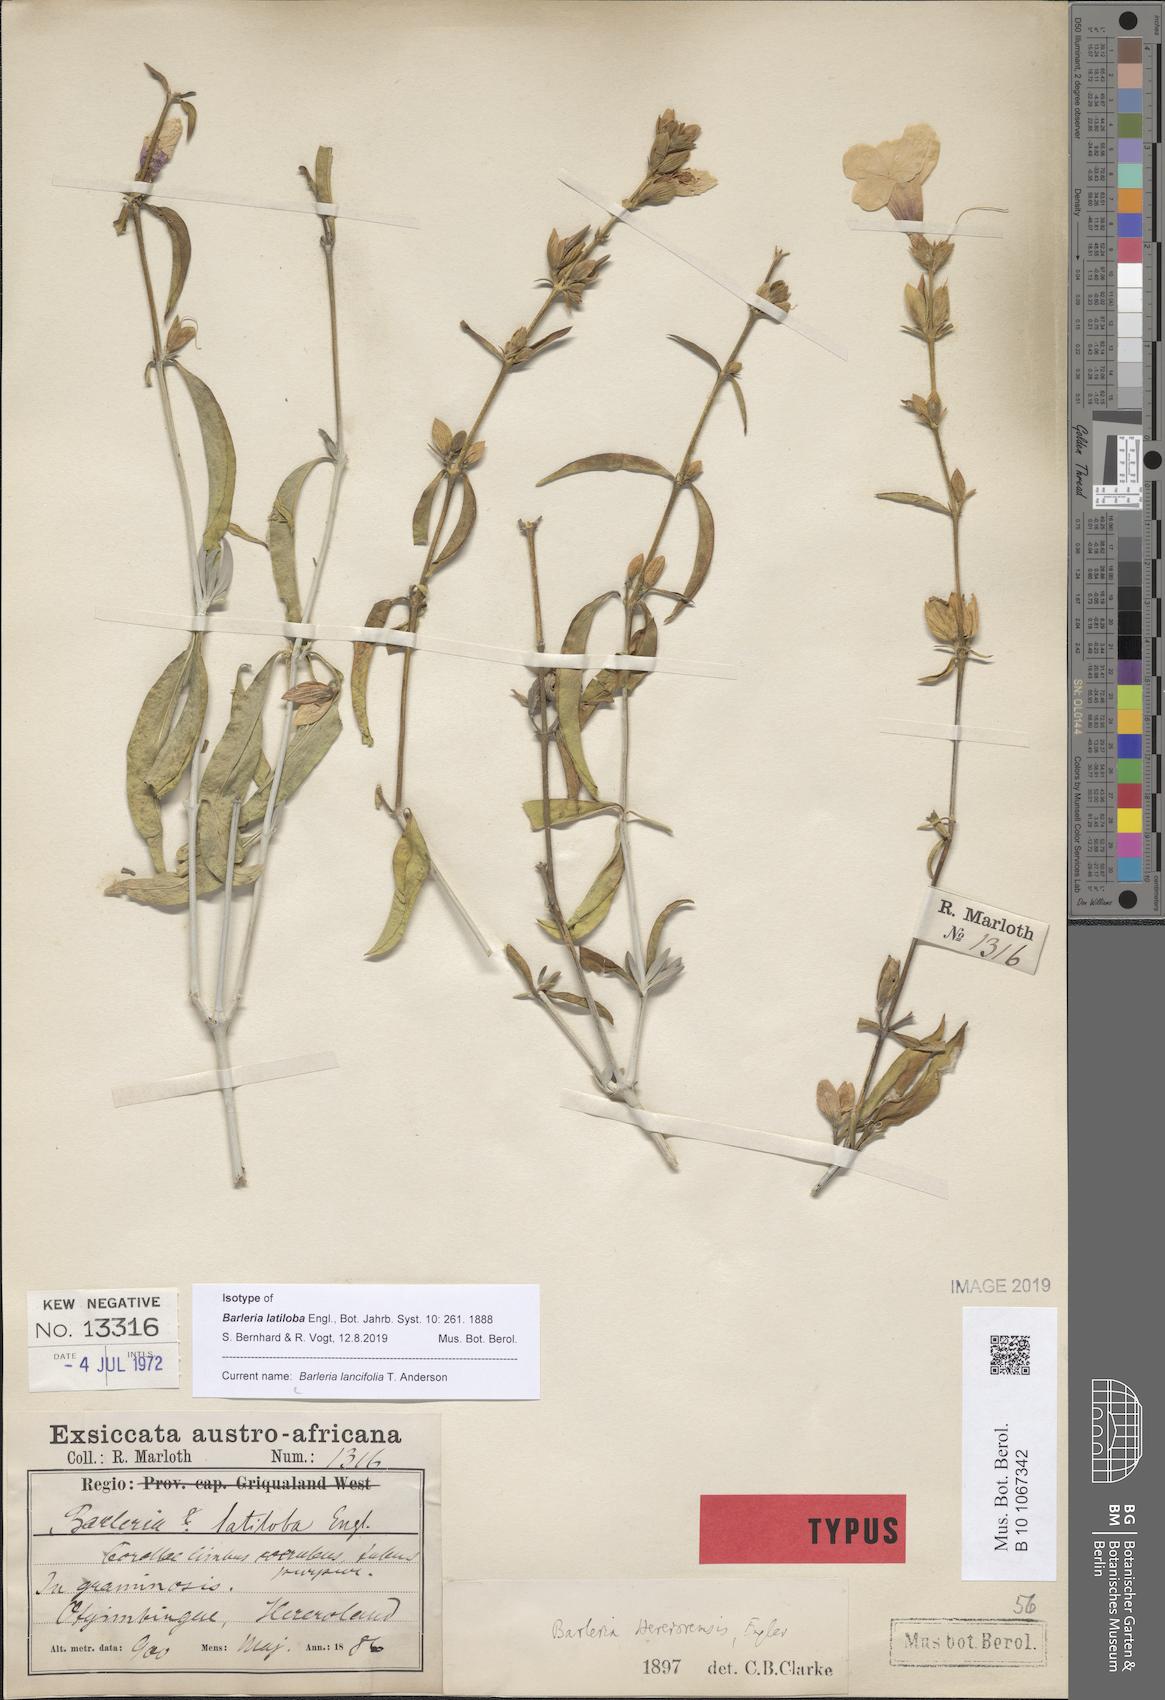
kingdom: Plantae
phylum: Tracheophyta
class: Magnoliopsida
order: Lamiales
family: Acanthaceae
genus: Barleria
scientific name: Barleria lancifolia
